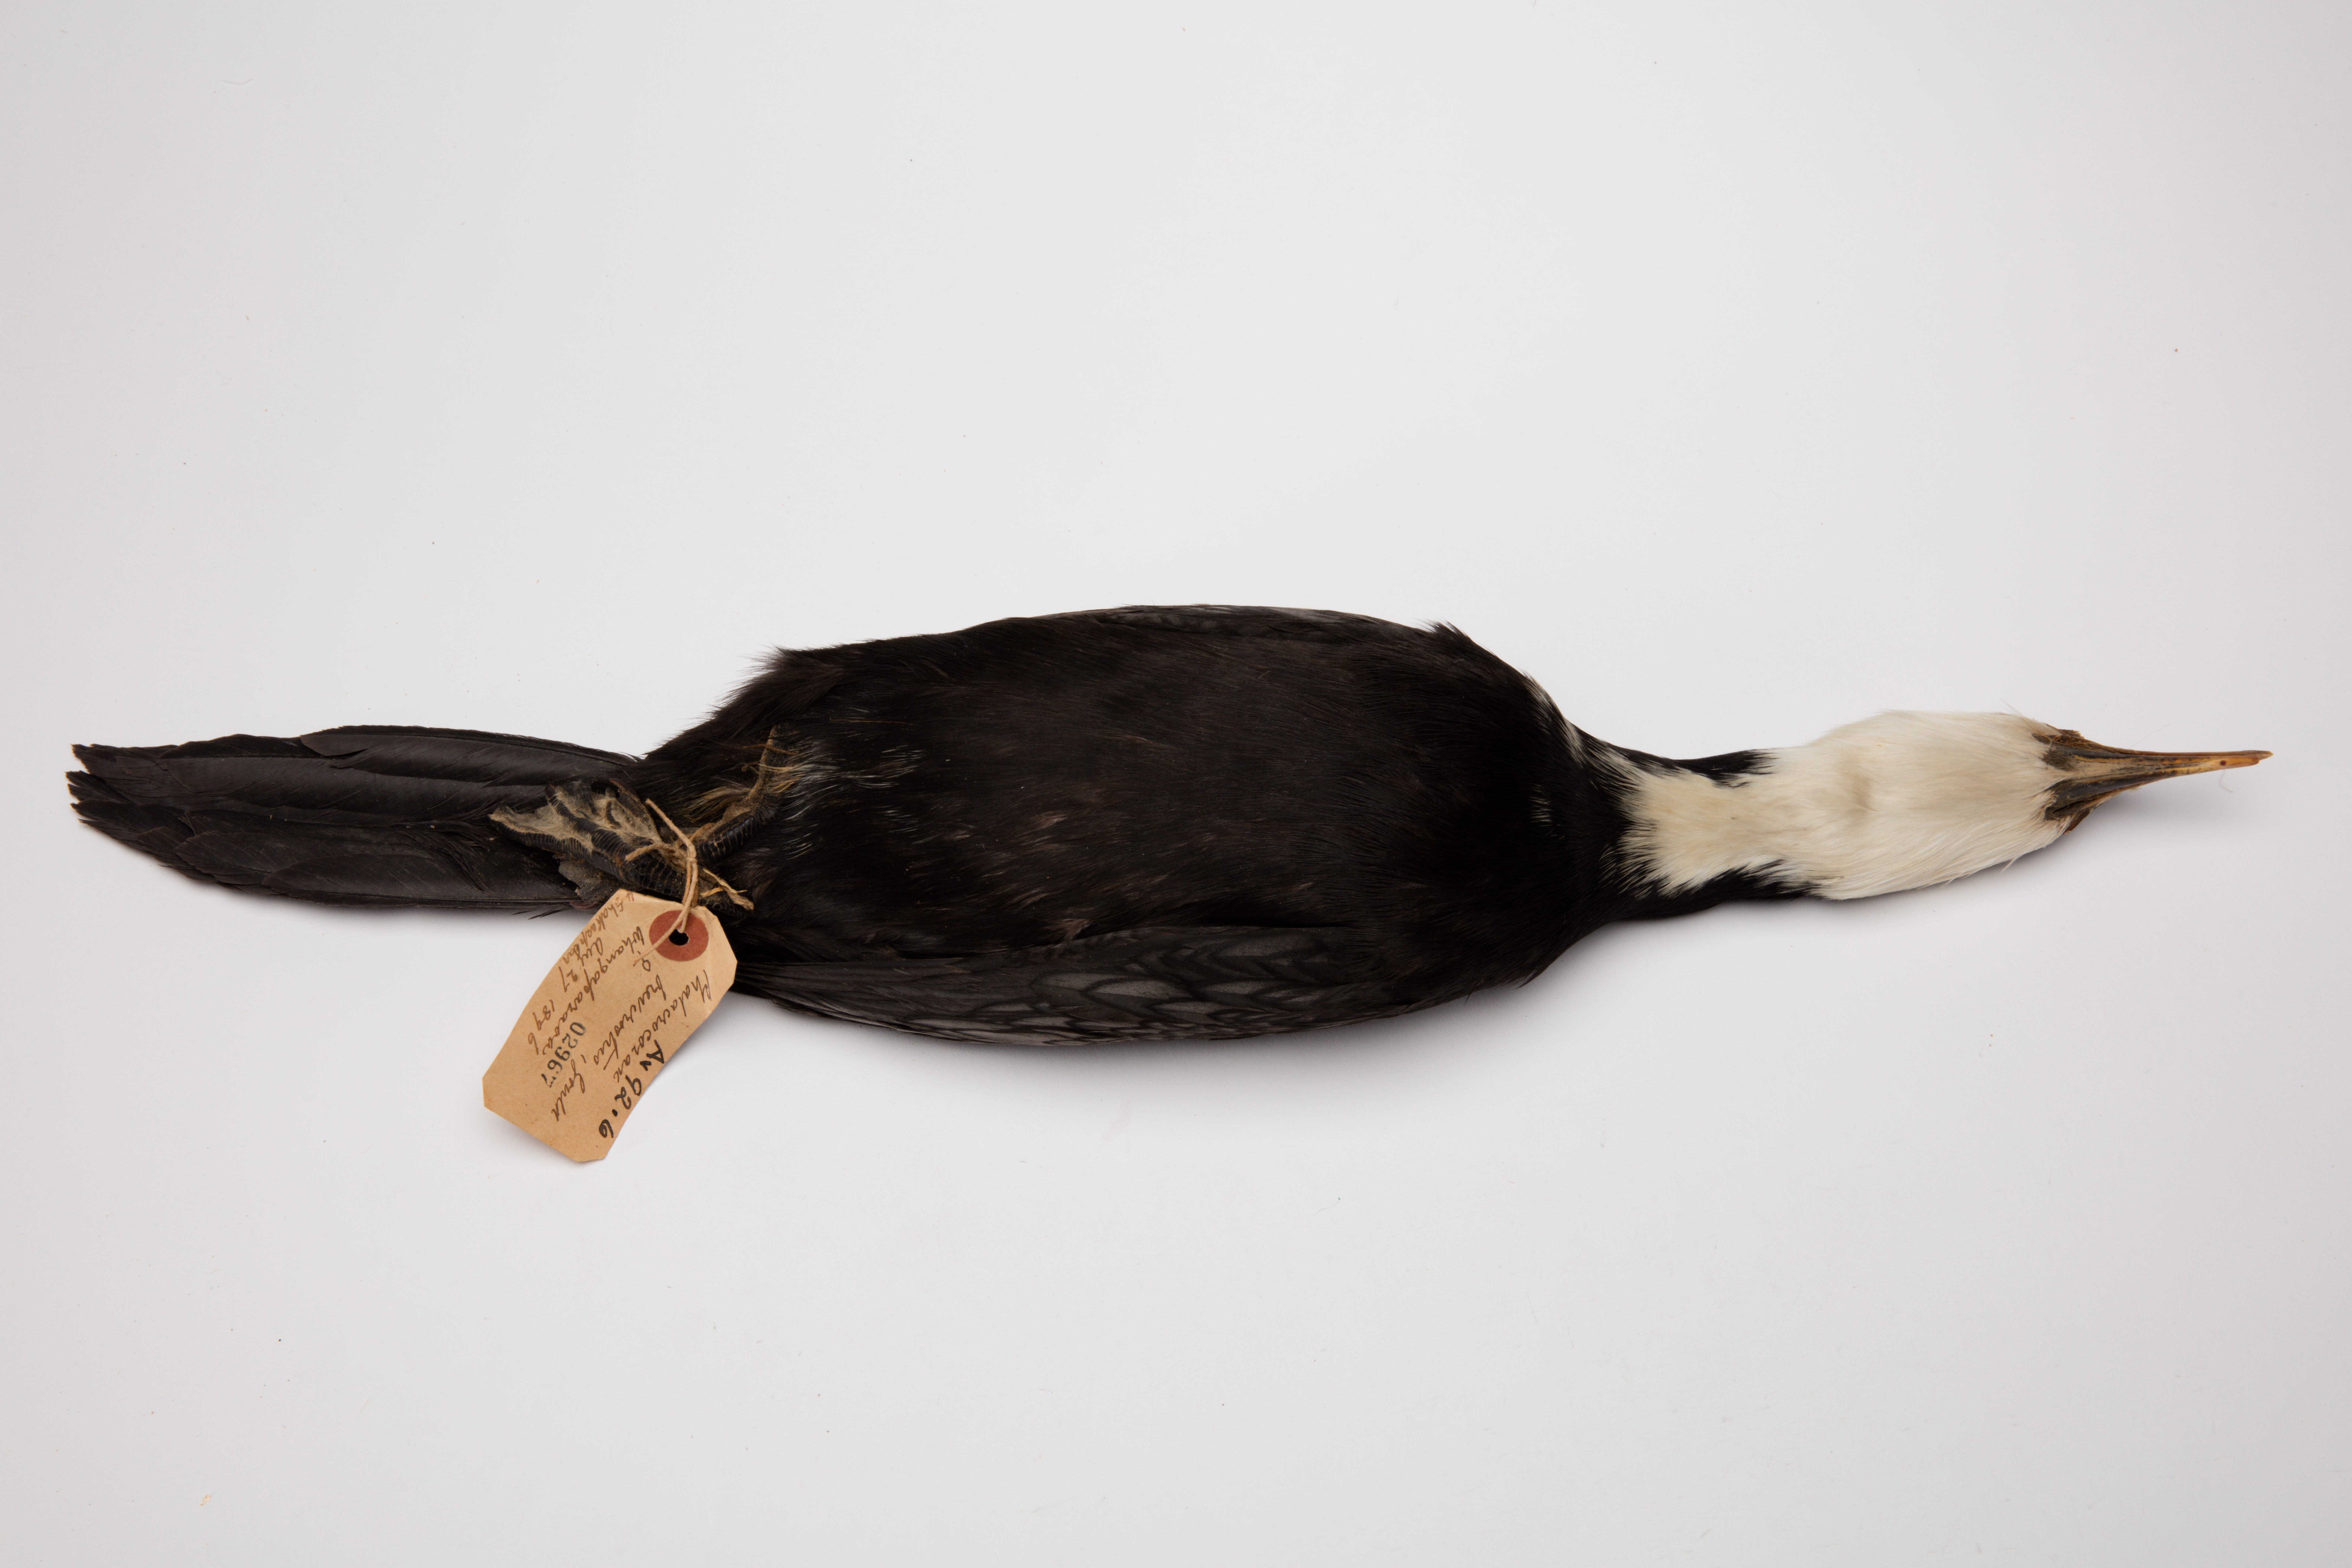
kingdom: Animalia
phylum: Chordata
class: Aves
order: Suliformes
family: Phalacrocoracidae
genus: Microcarbo
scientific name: Microcarbo melanoleucos
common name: Little pied cormorant
